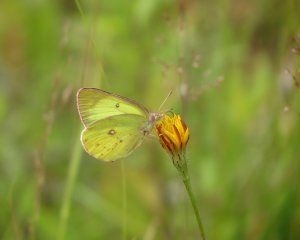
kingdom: Animalia
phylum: Arthropoda
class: Insecta
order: Lepidoptera
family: Pieridae
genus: Colias
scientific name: Colias interior
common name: Pink-edged Sulphur
